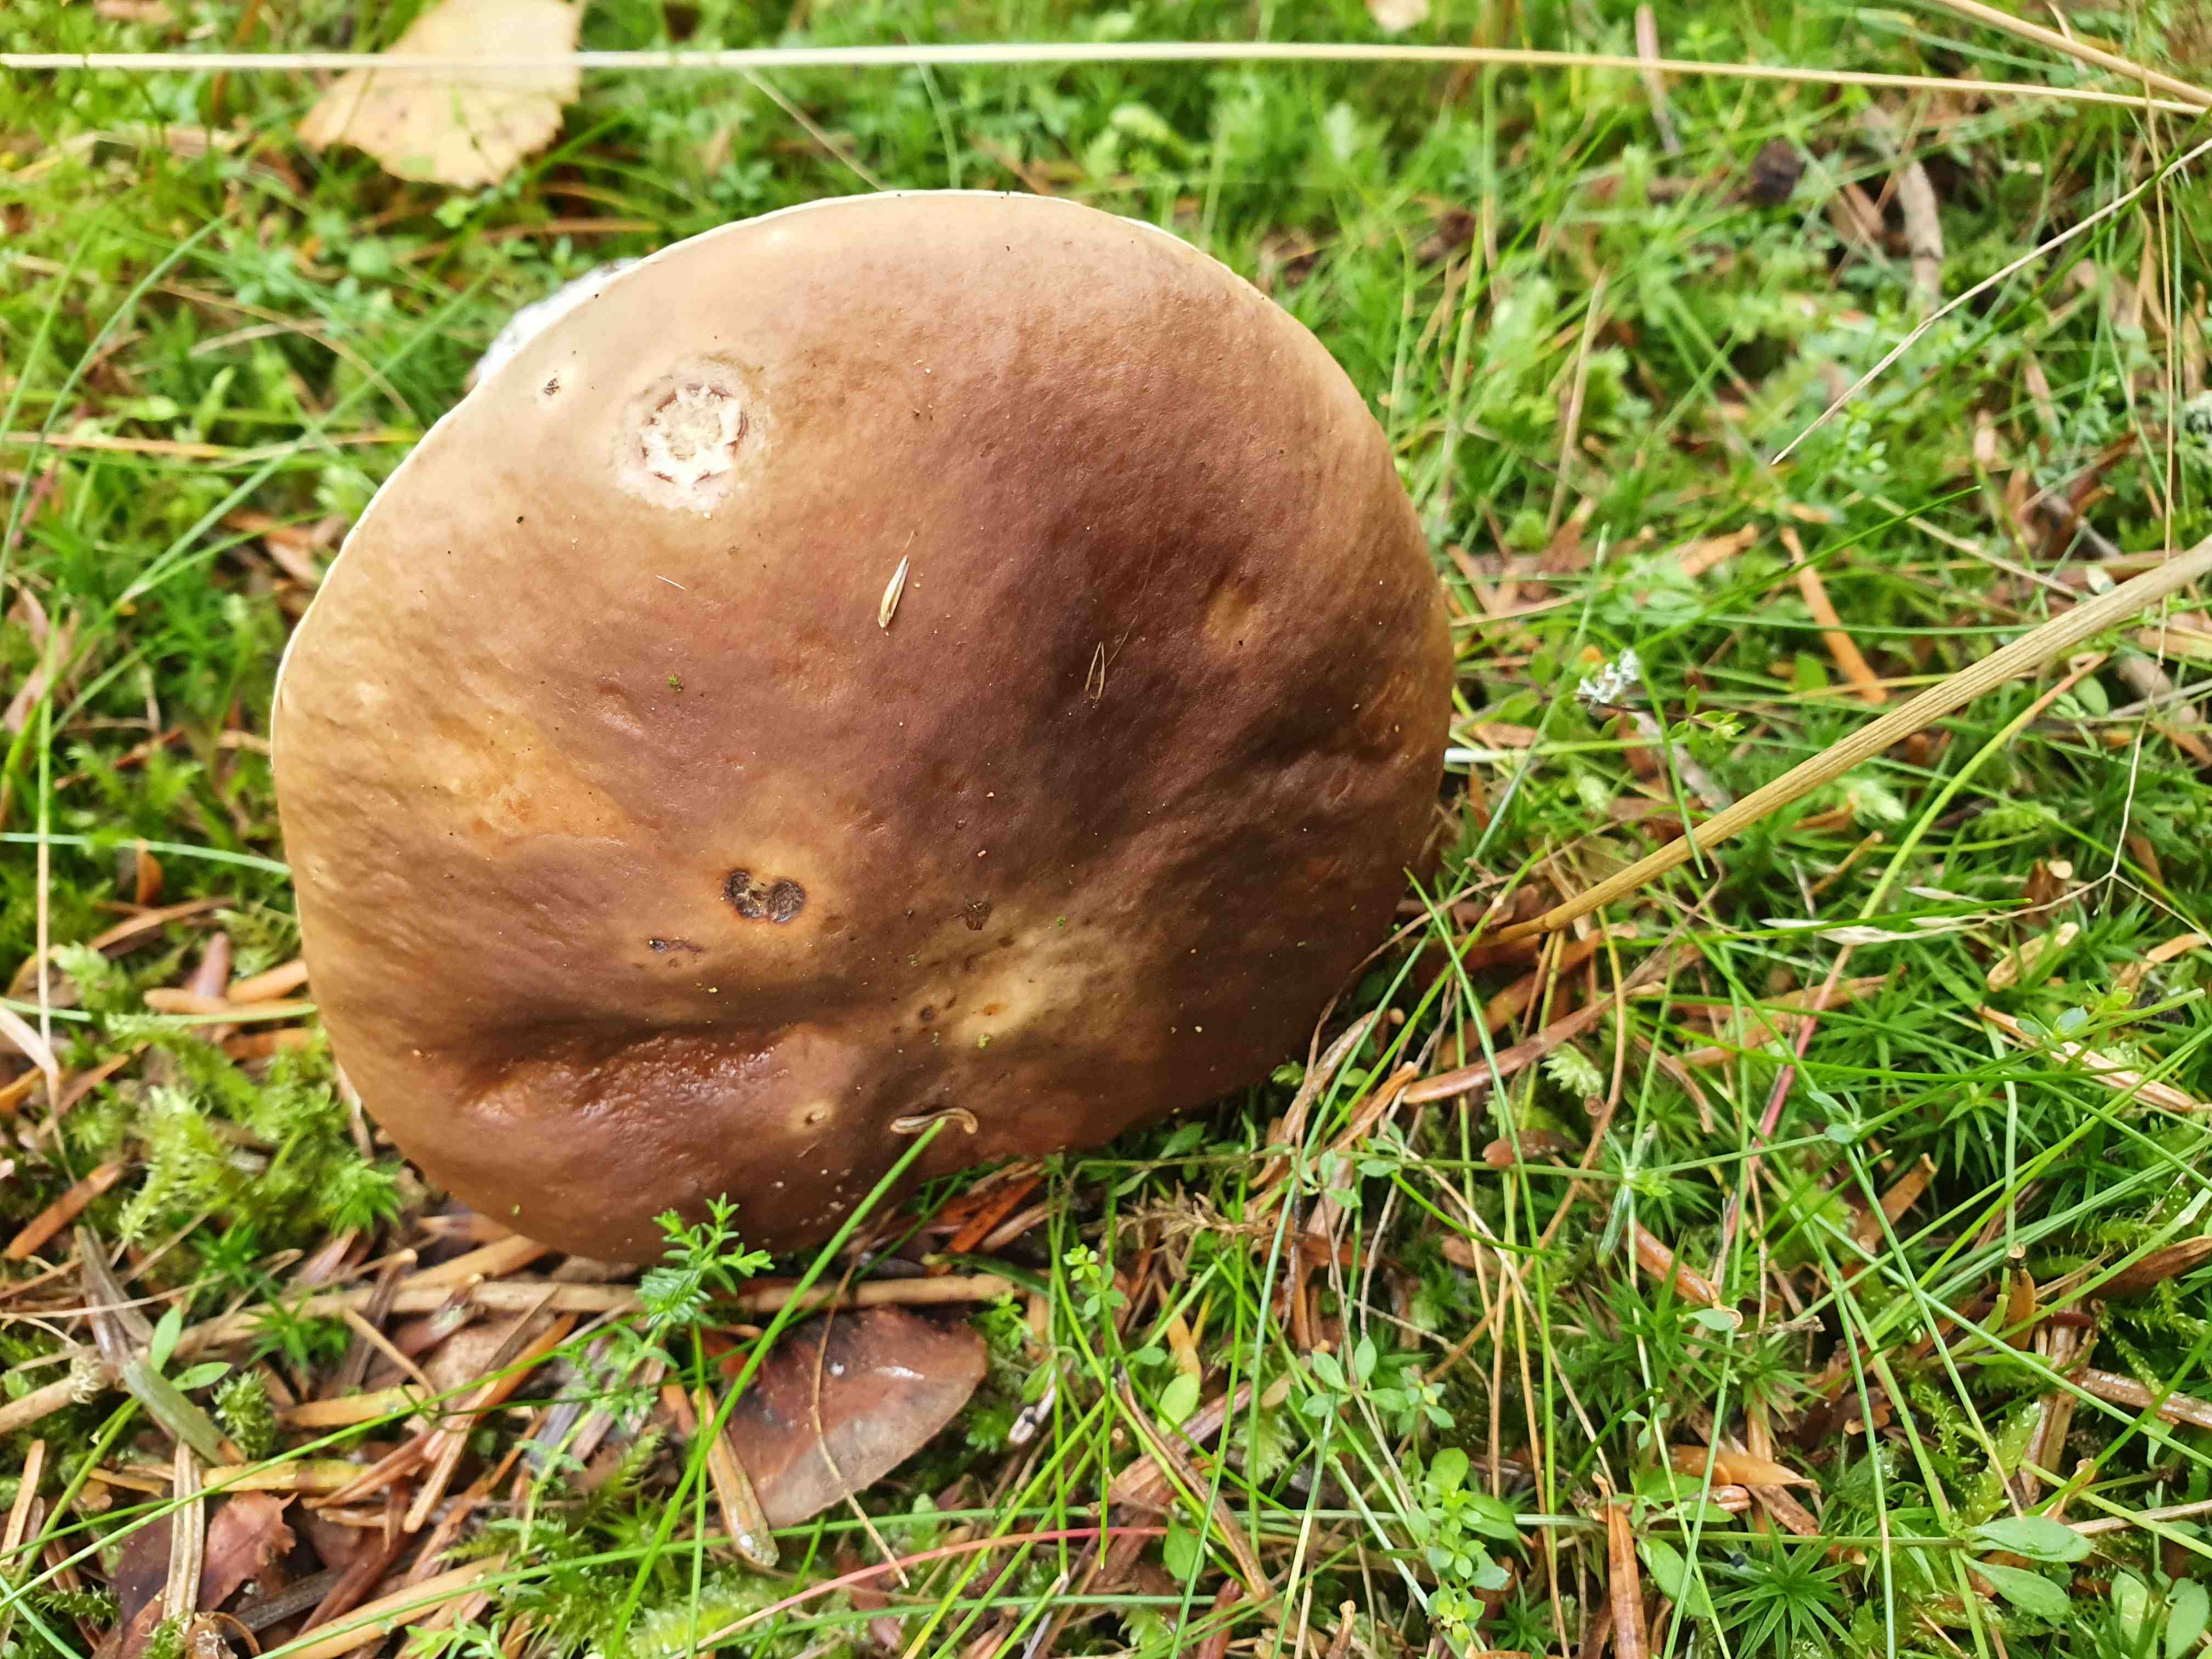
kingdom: Fungi
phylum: Basidiomycota
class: Agaricomycetes
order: Boletales
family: Boletaceae
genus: Boletus
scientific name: Boletus edulis
